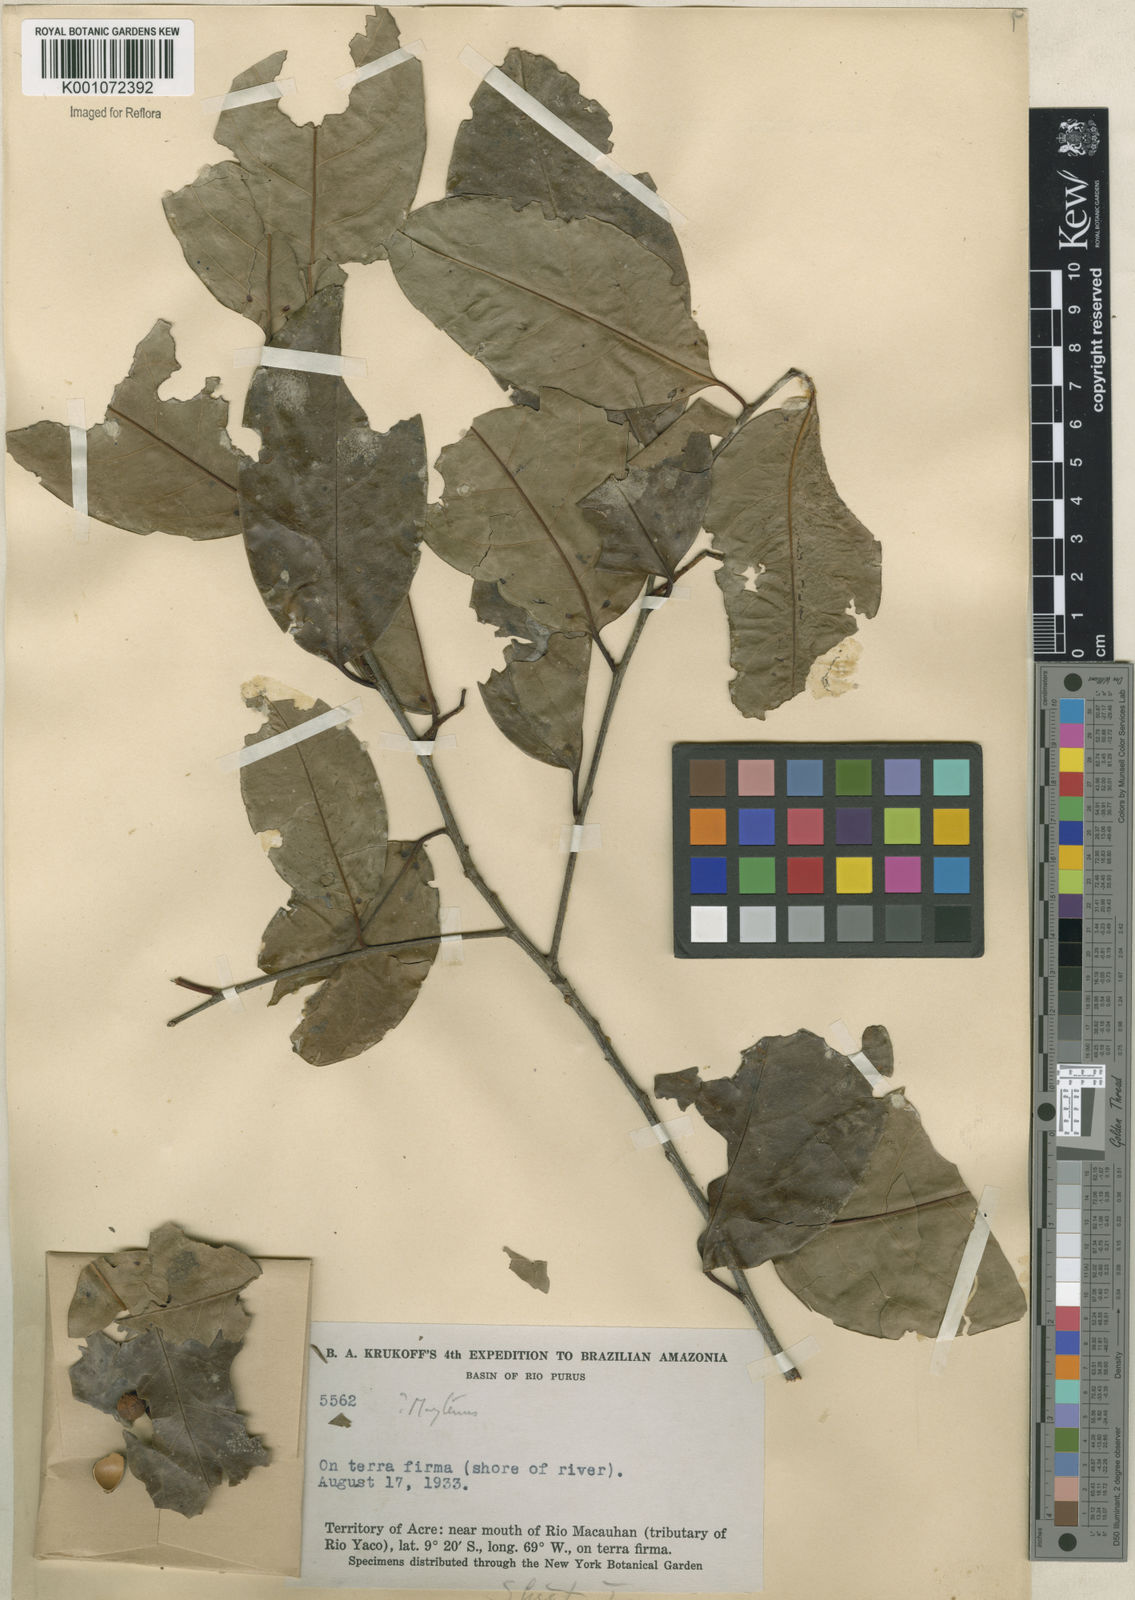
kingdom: Plantae
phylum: Tracheophyta
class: Magnoliopsida
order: Celastrales
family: Celastraceae
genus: Maytenus
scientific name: Maytenus
